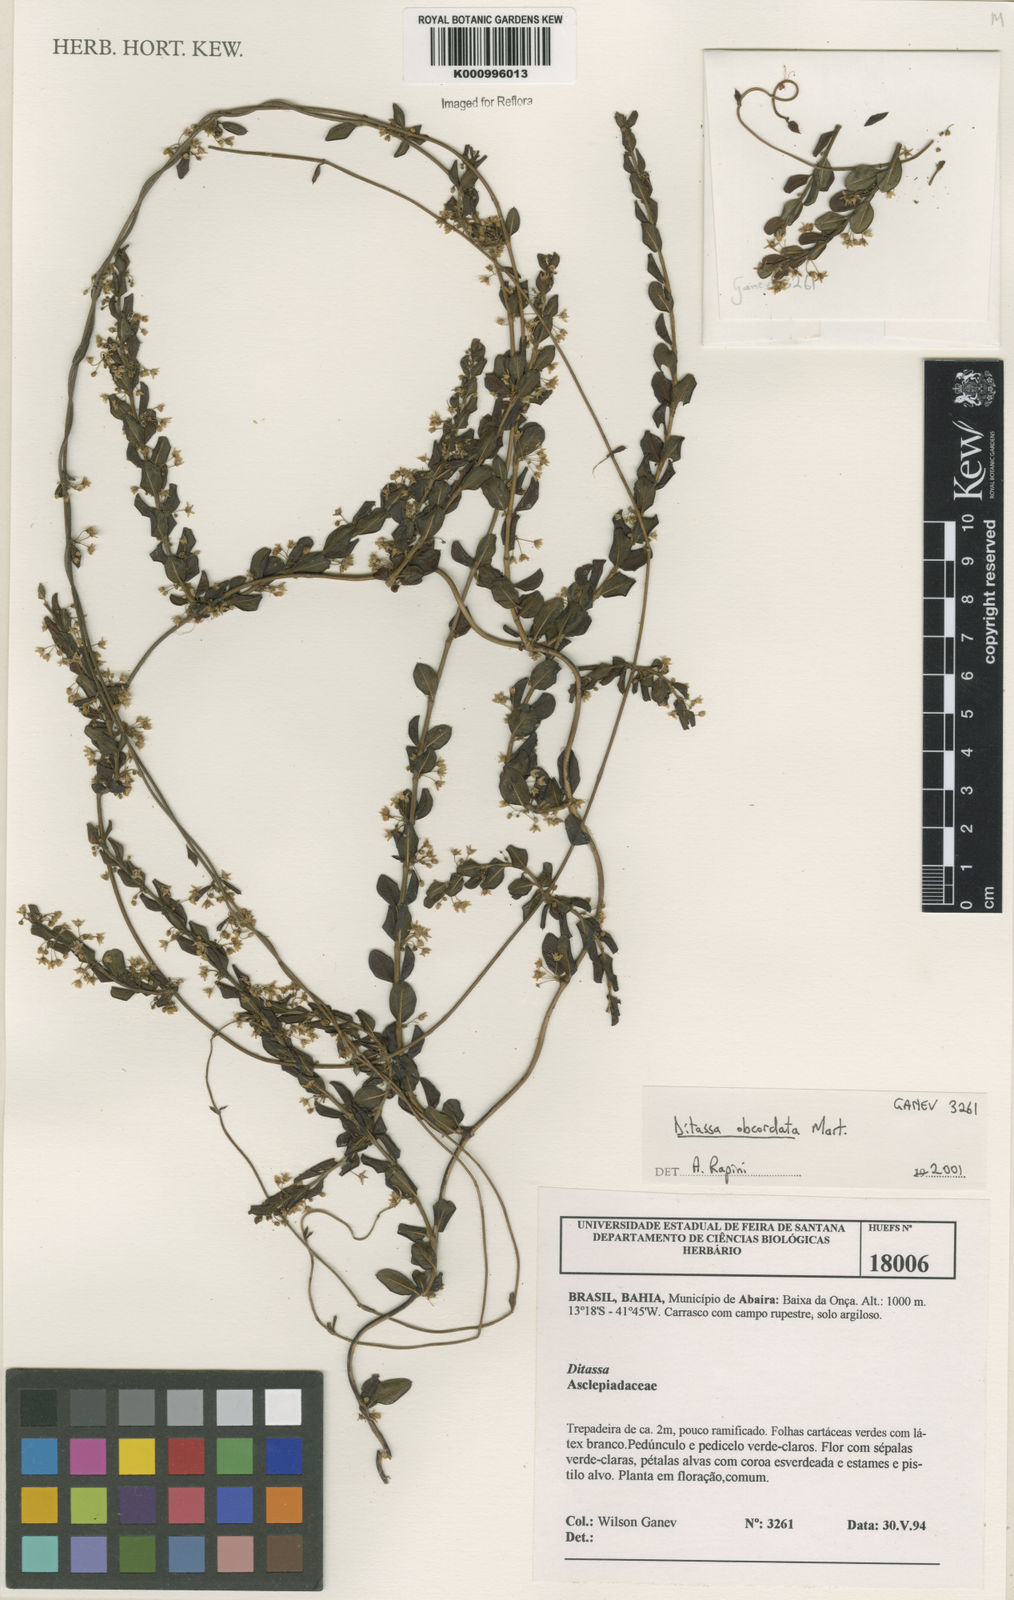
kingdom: Plantae
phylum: Tracheophyta
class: Magnoliopsida
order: Gentianales
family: Apocynaceae
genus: Ditassa
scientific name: Ditassa obcordata
